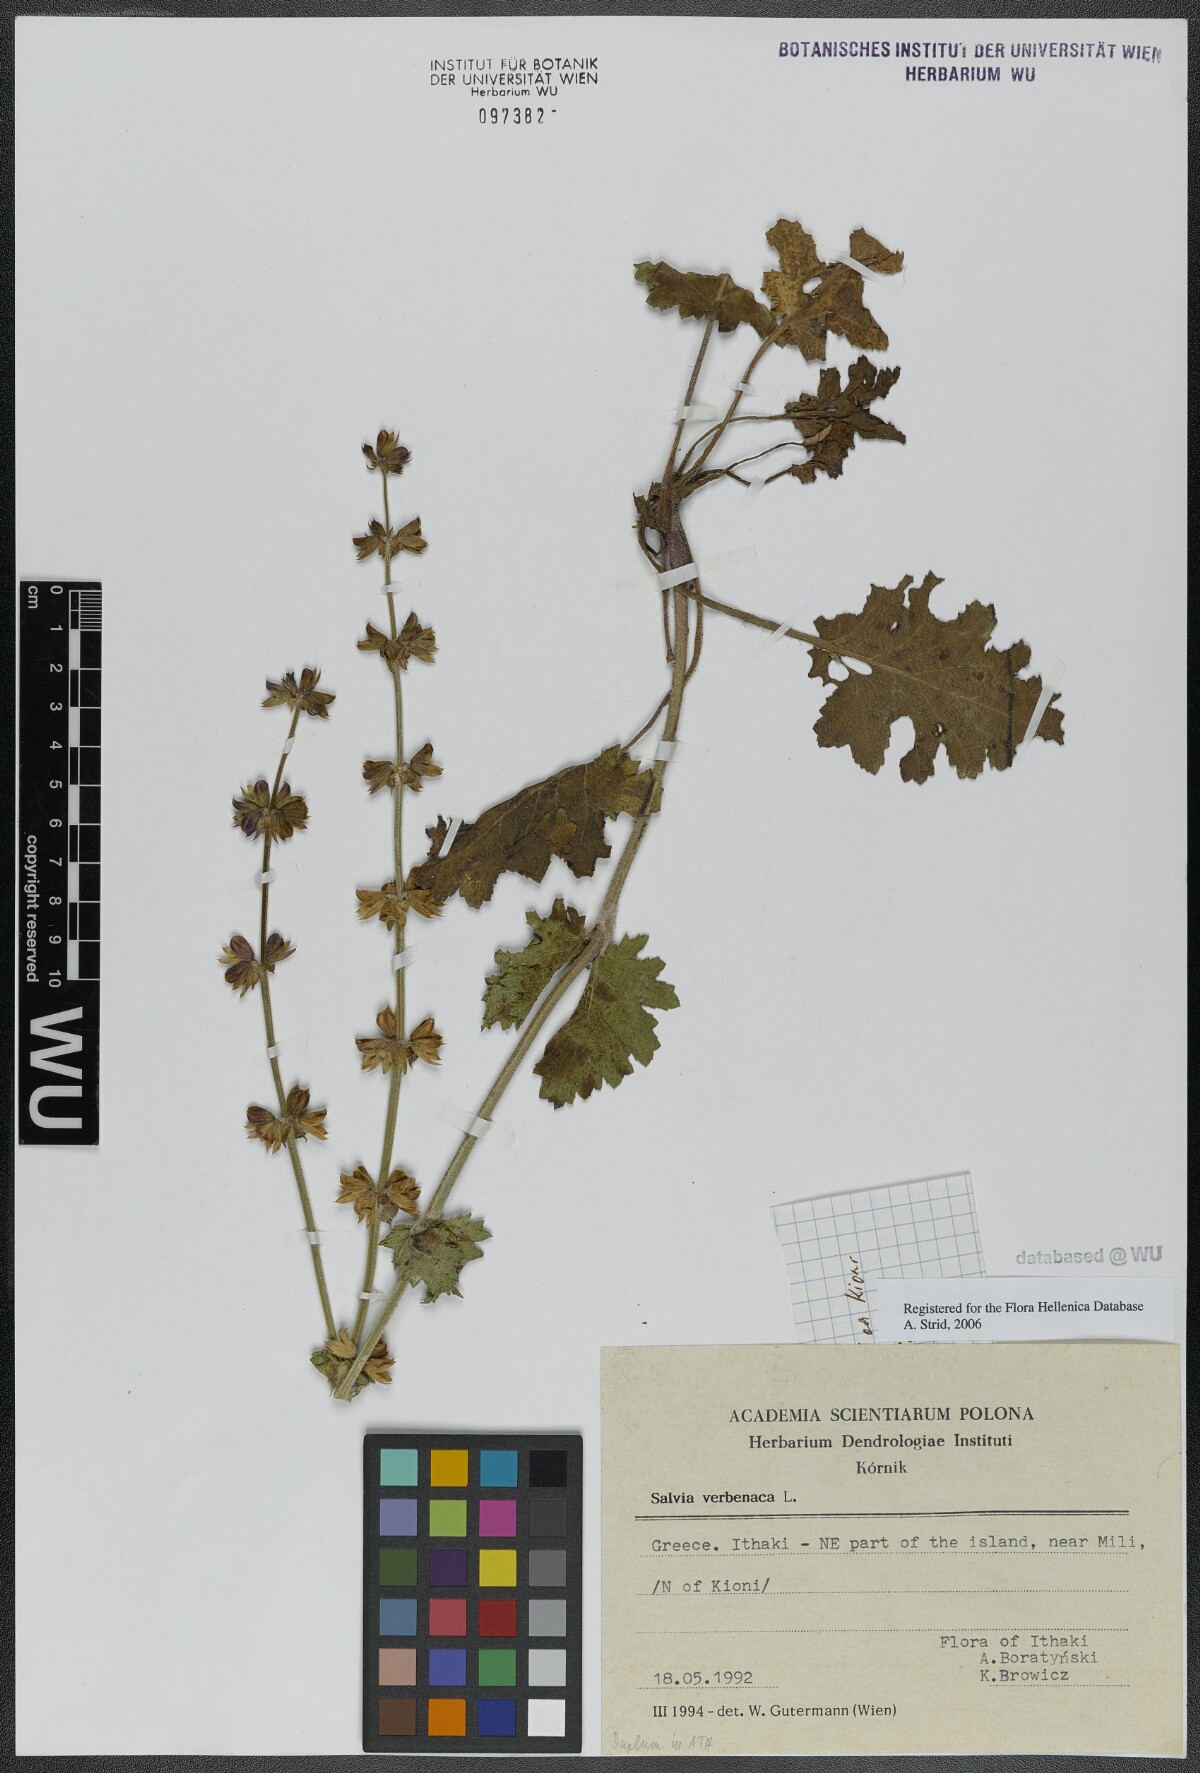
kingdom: Plantae
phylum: Tracheophyta
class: Magnoliopsida
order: Lamiales
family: Lamiaceae
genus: Salvia
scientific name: Salvia verbenaca
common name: Wild clary
